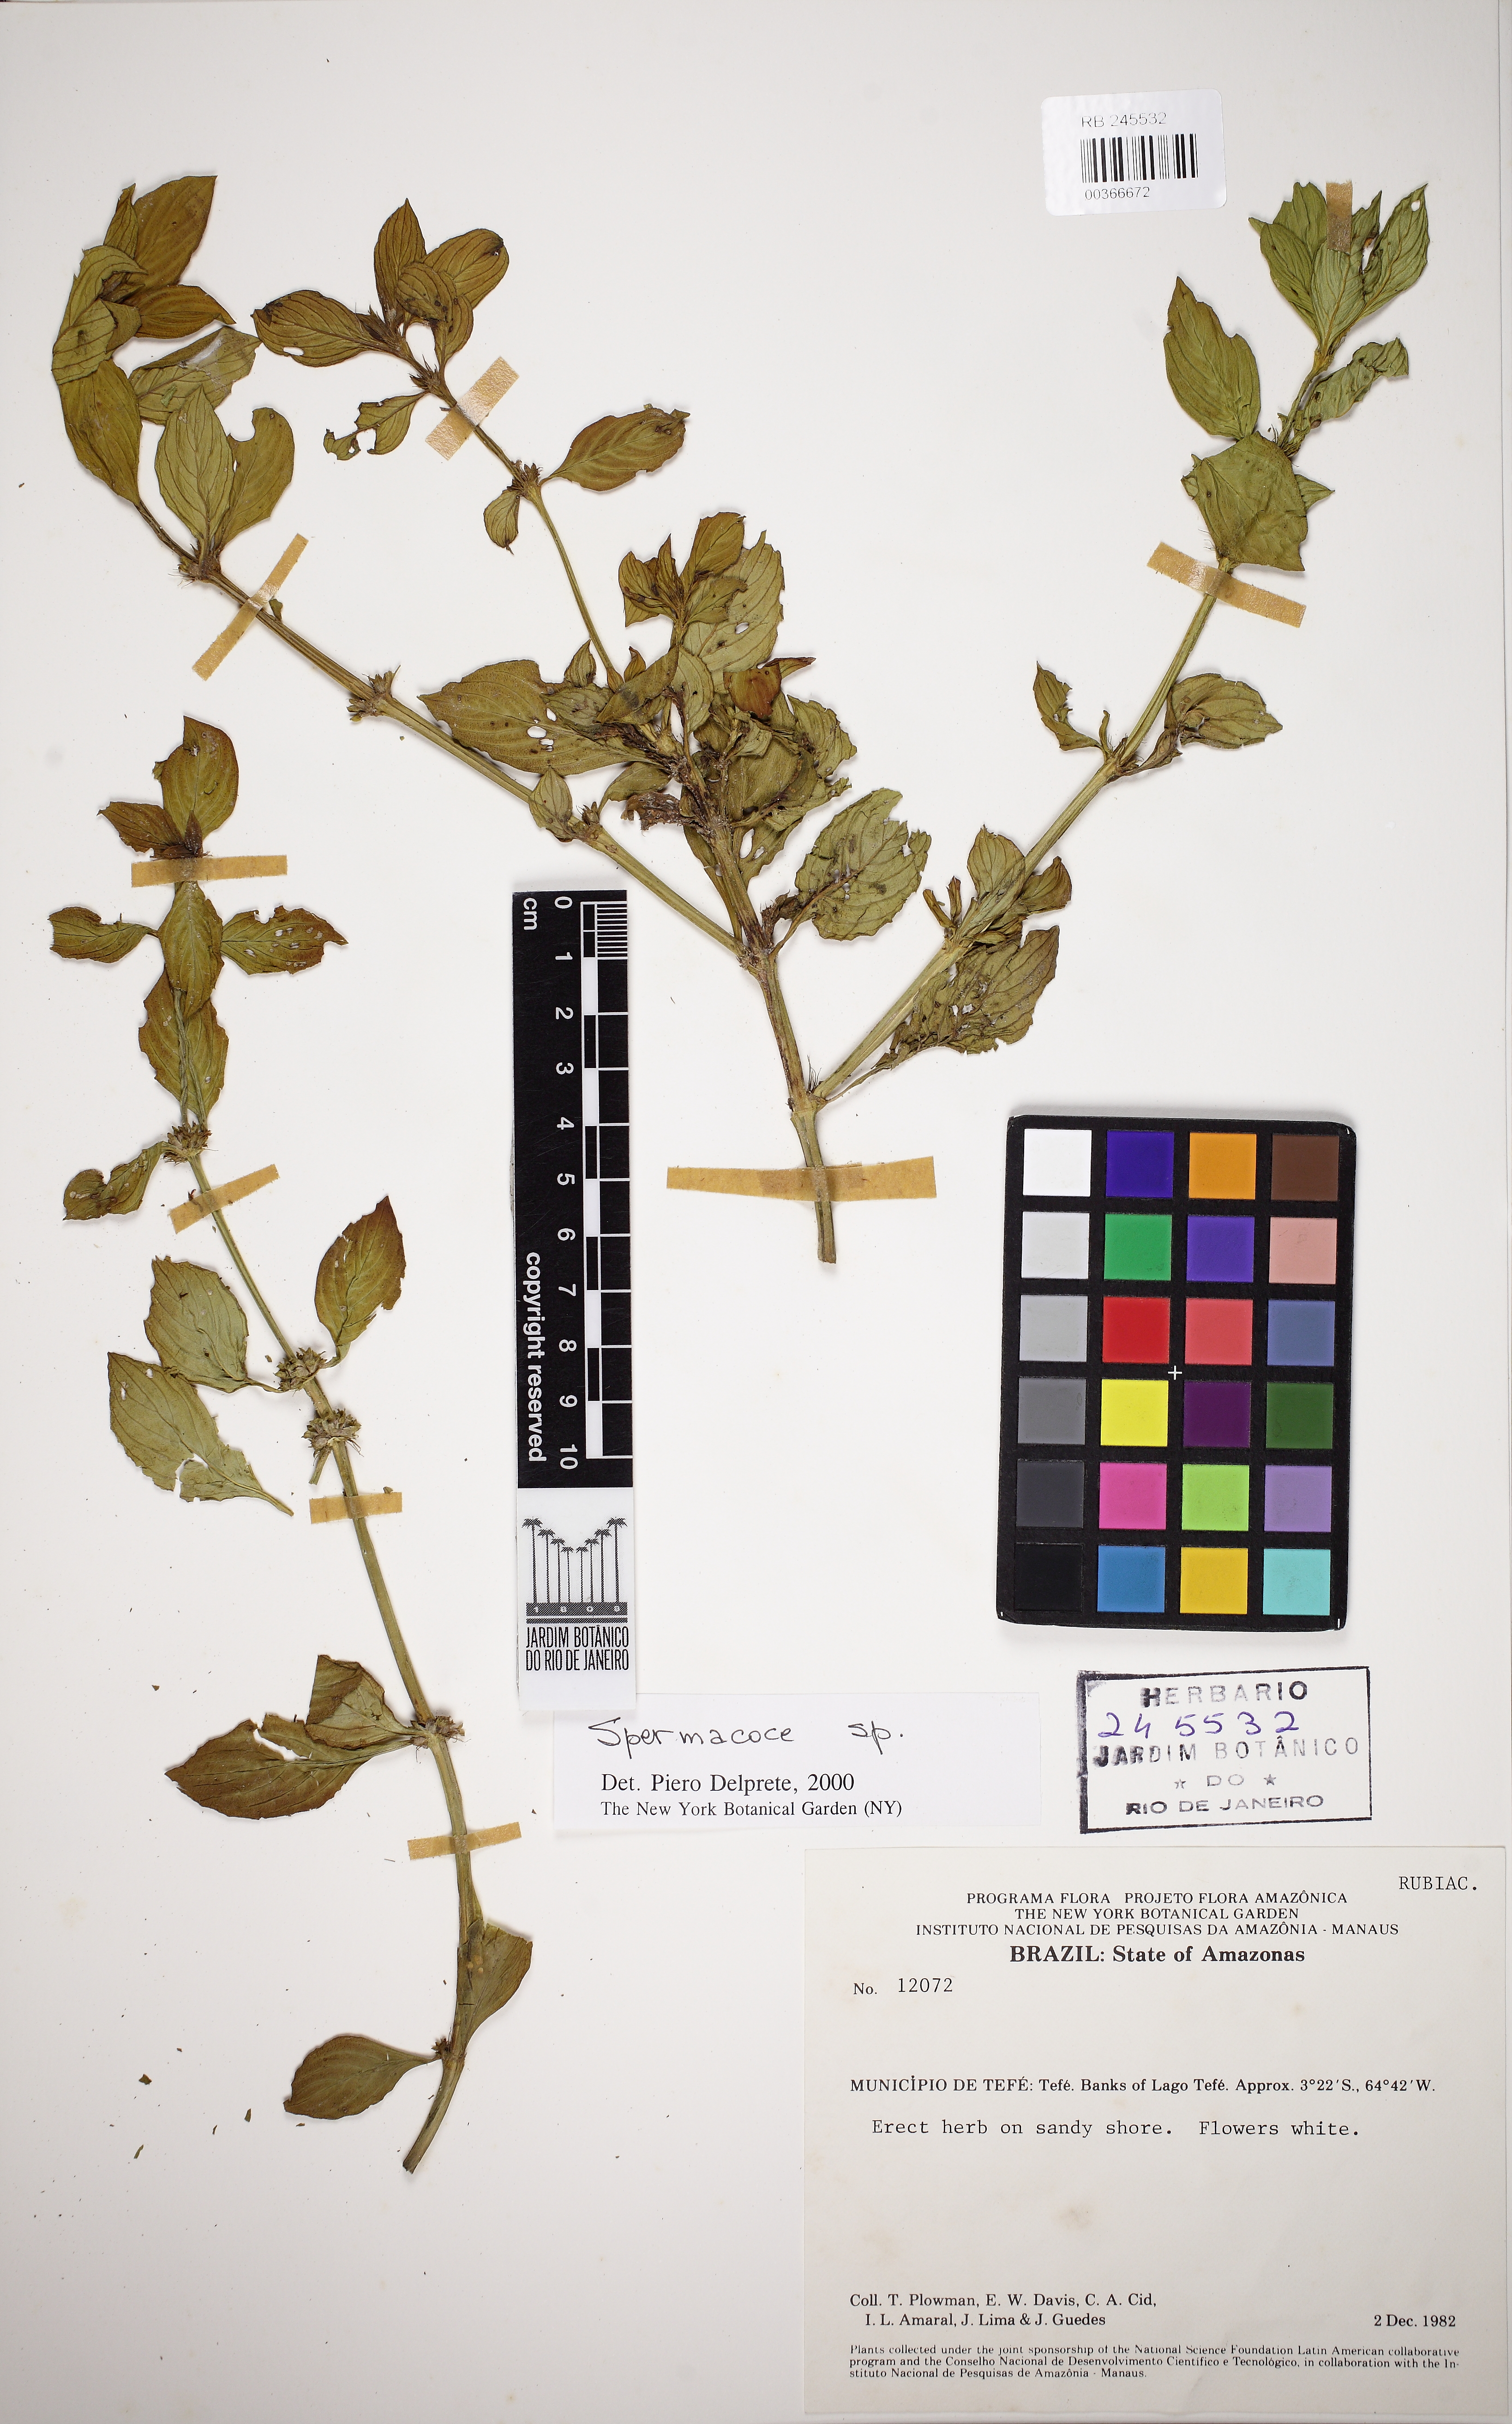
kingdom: Plantae
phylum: Tracheophyta
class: Magnoliopsida
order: Gentianales
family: Rubiaceae
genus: Spermacoce
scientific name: Spermacoce alata
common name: Winged false buttonweed
